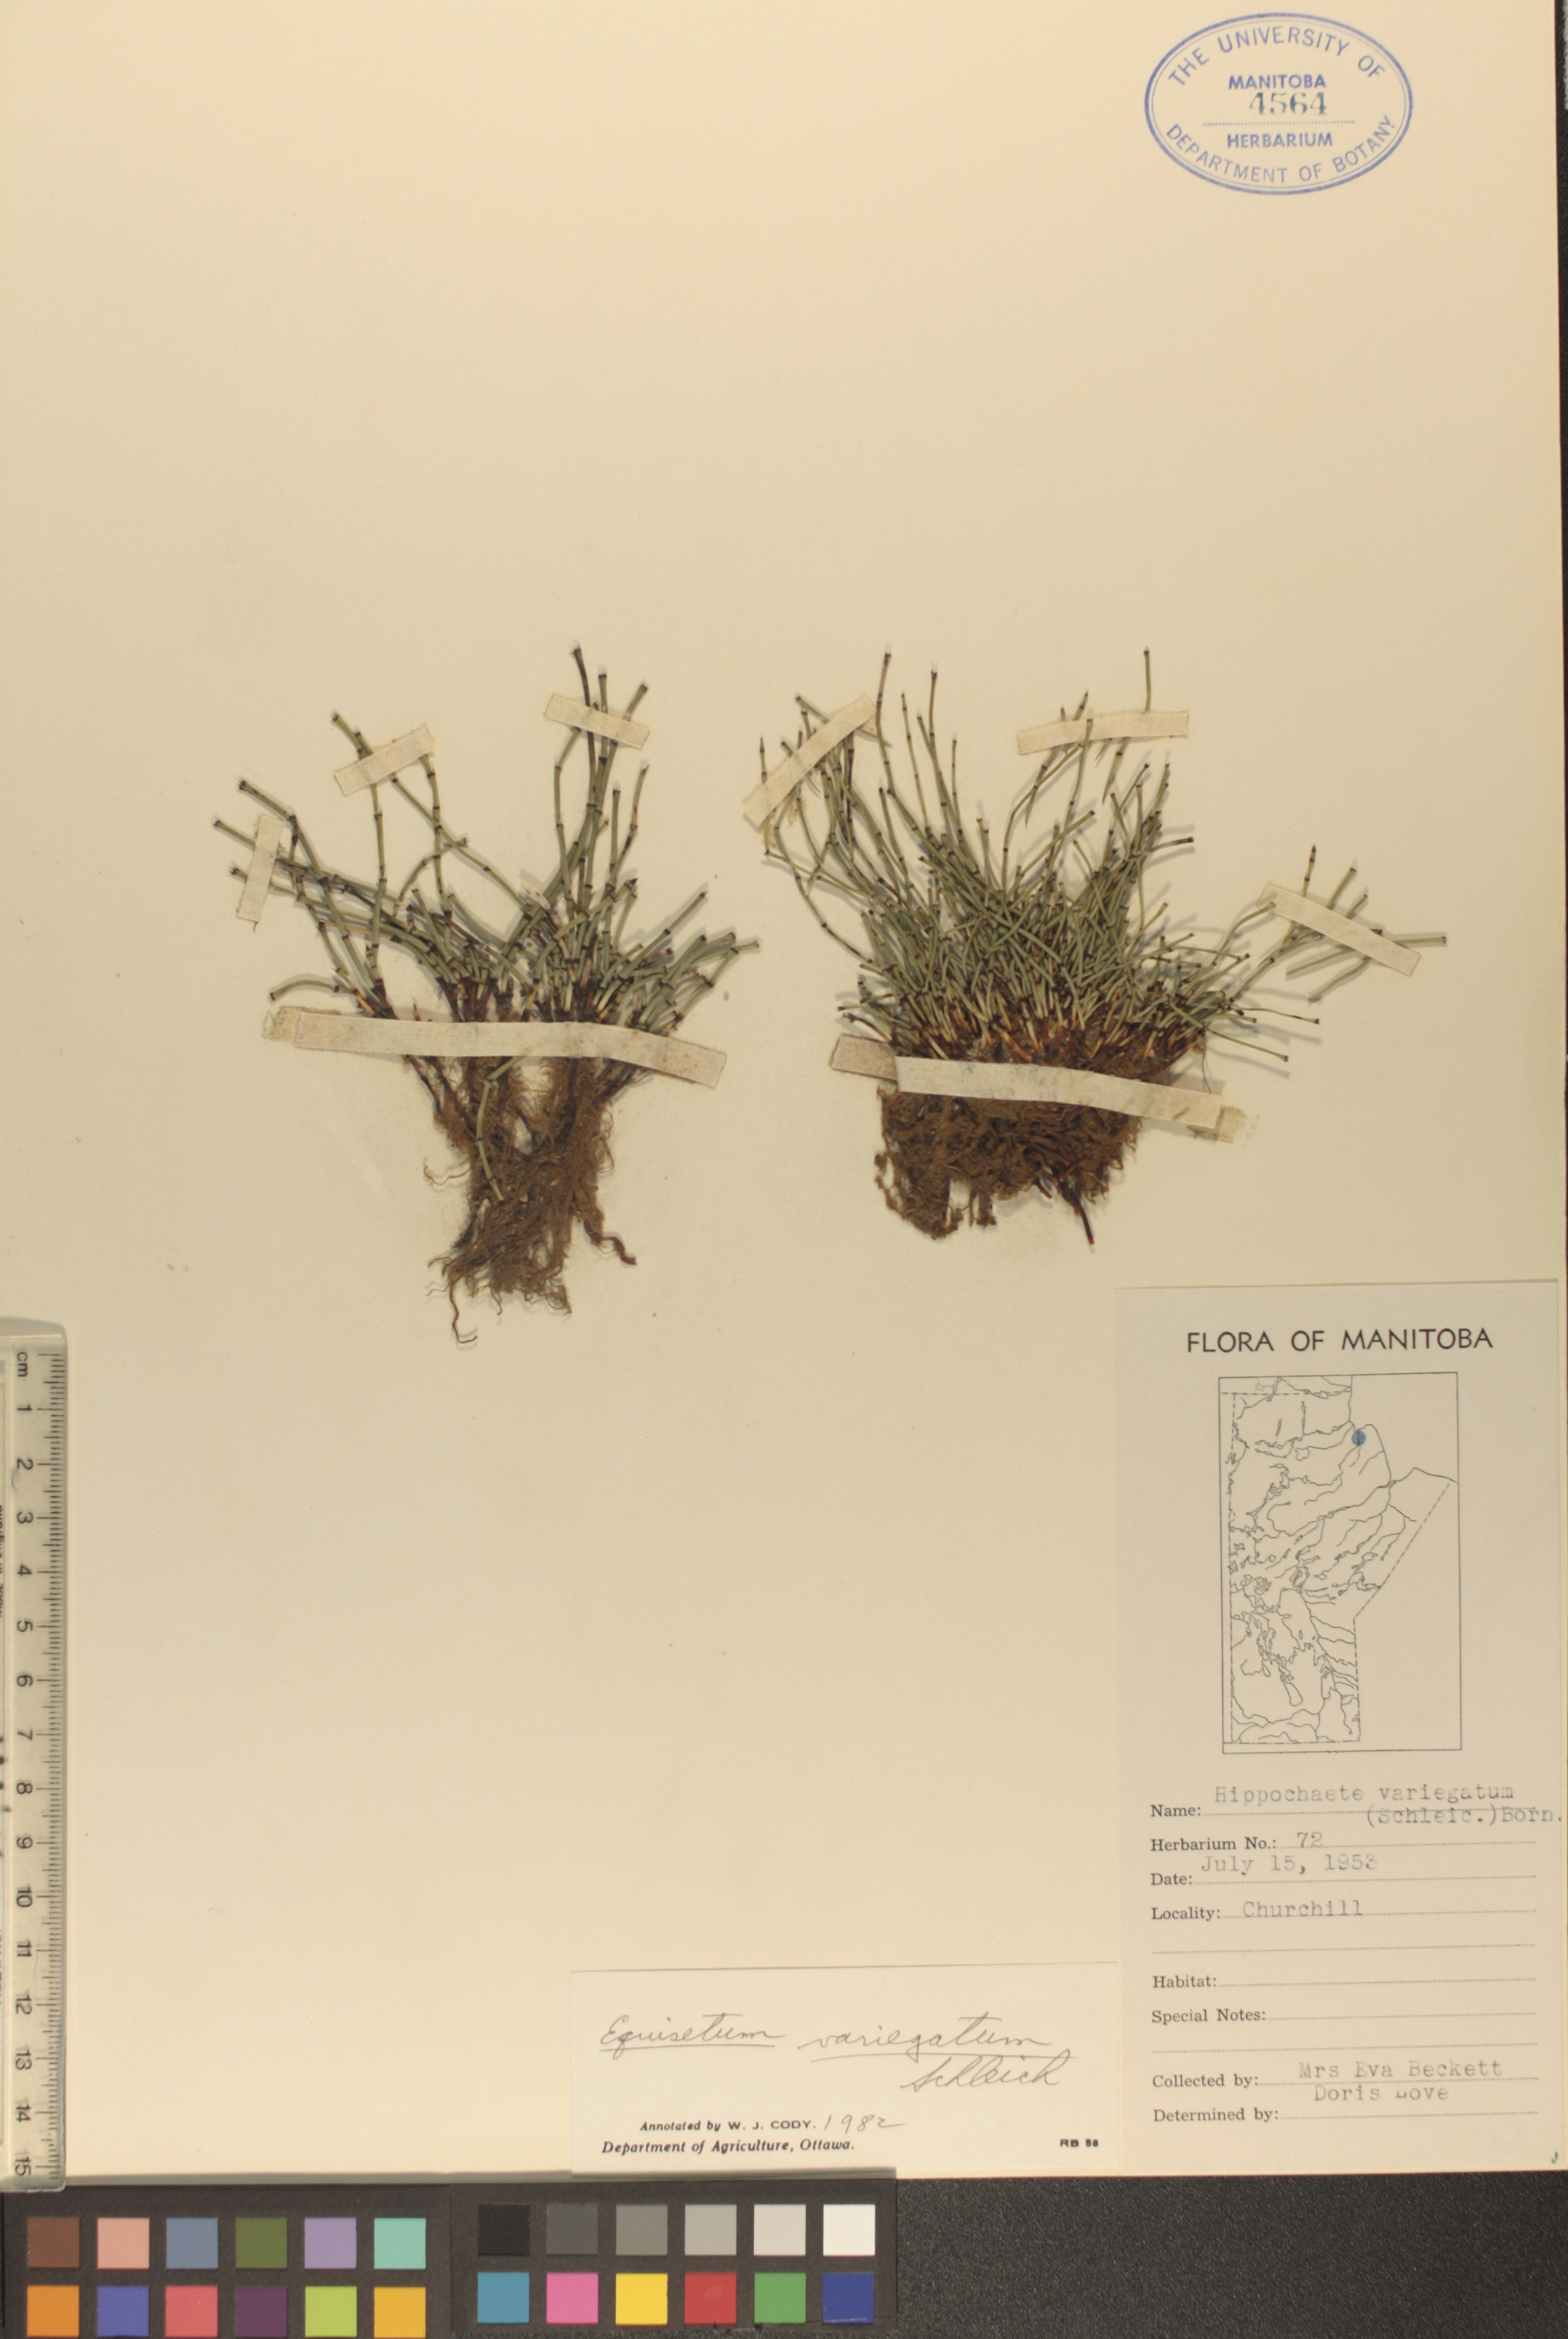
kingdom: Plantae
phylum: Tracheophyta
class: Polypodiopsida
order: Equisetales
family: Equisetaceae
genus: Equisetum
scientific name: Equisetum variegatum
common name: Variegated horsetail
